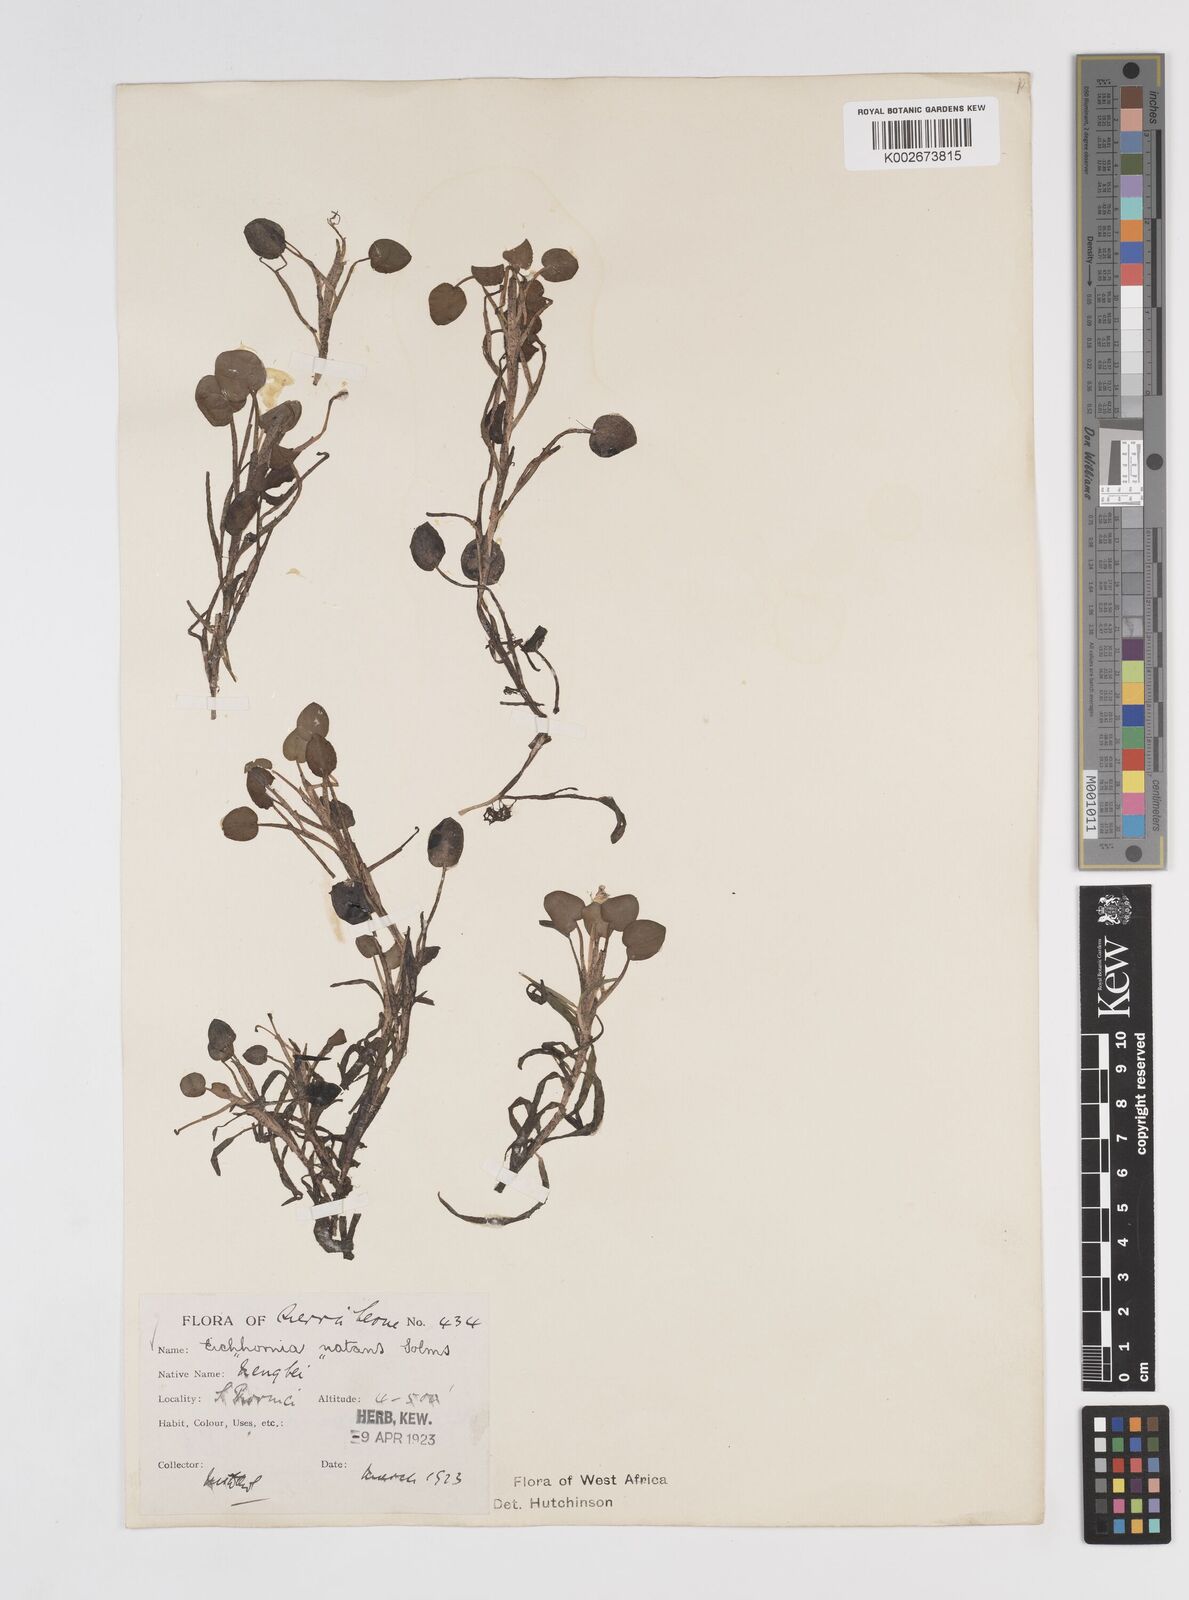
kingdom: Plantae
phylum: Tracheophyta
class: Liliopsida
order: Commelinales
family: Pontederiaceae
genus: Pontederia
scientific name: Pontederia diversifolia
